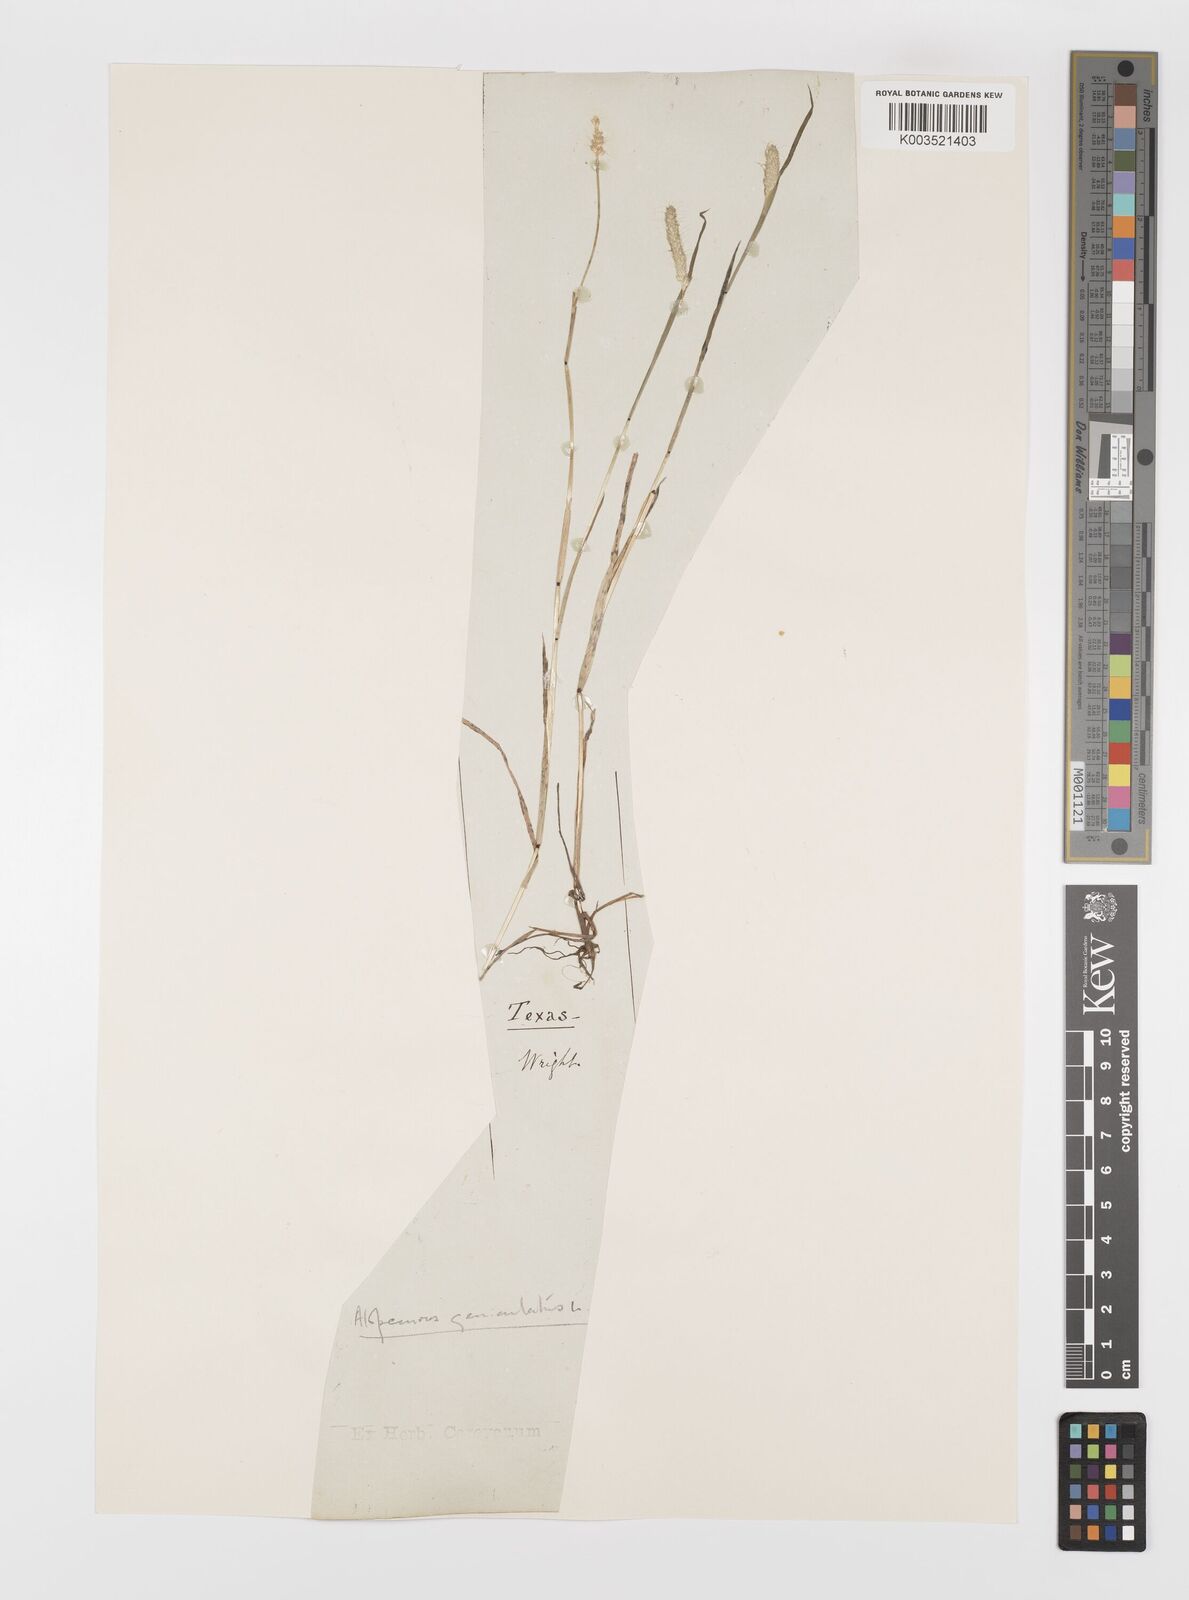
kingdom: Plantae
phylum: Tracheophyta
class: Liliopsida
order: Poales
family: Poaceae
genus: Alopecurus
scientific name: Alopecurus geniculatus
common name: Water foxtail
